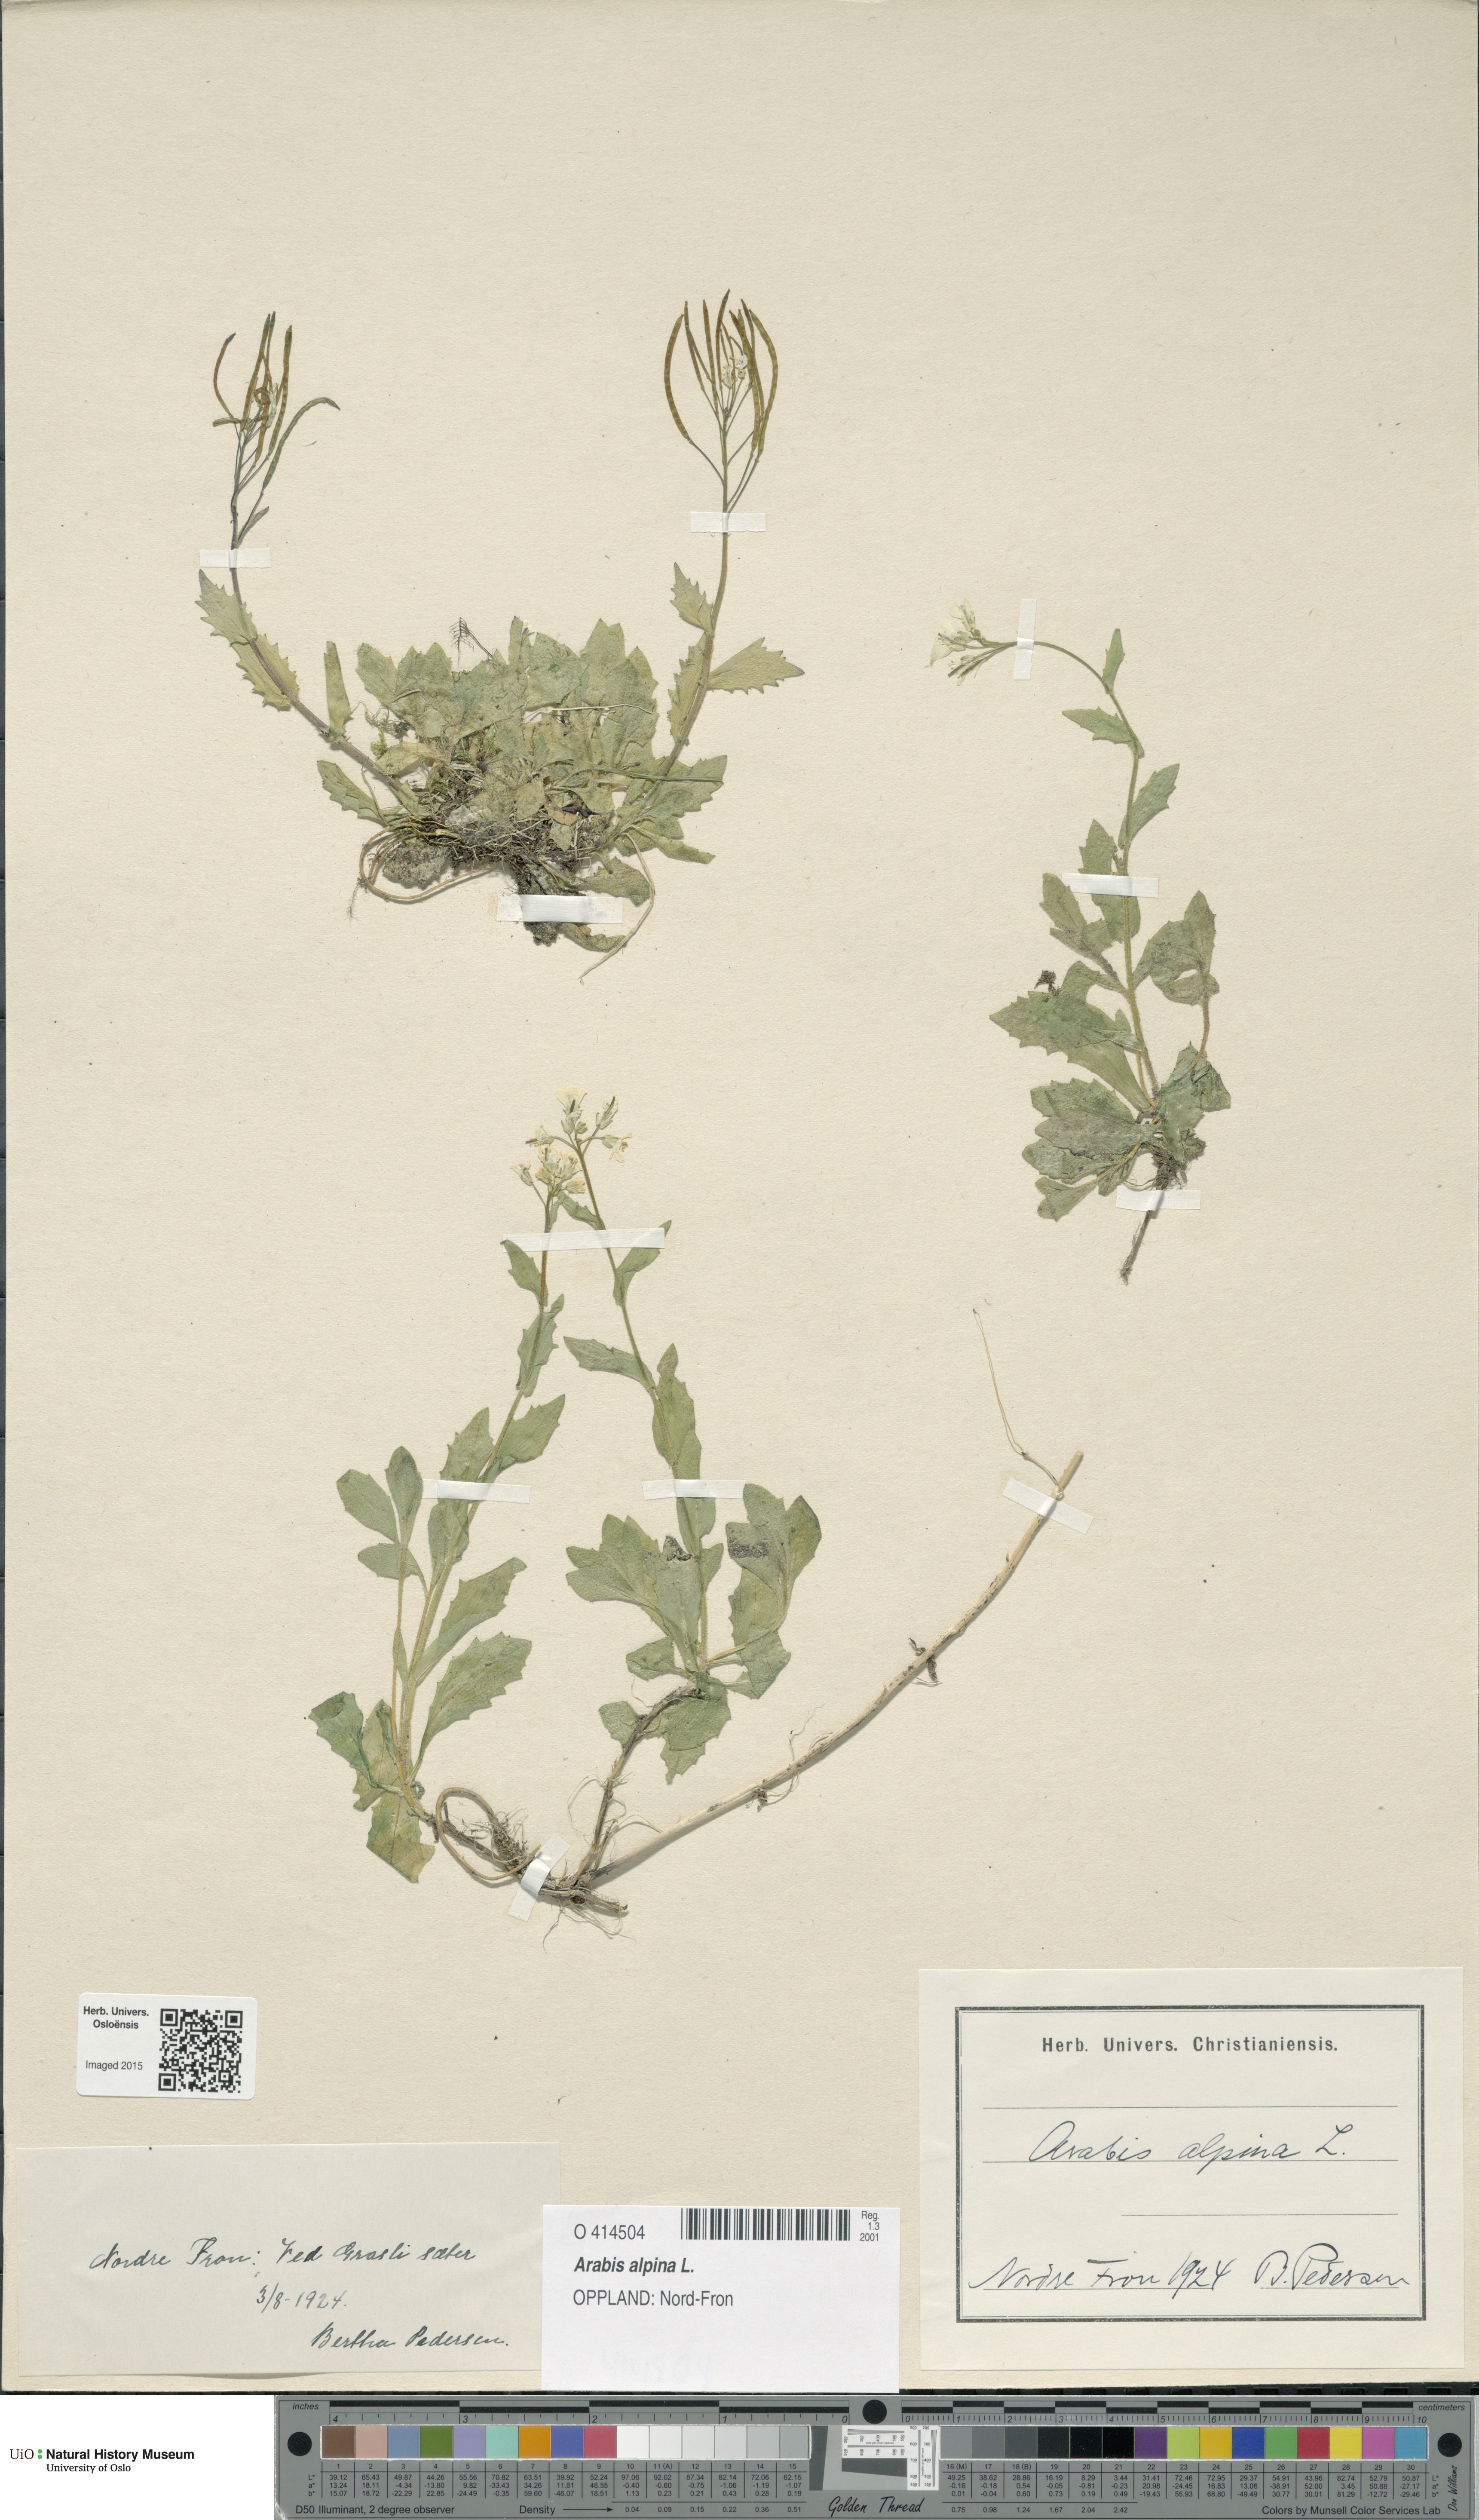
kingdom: Plantae
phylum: Tracheophyta
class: Magnoliopsida
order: Brassicales
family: Brassicaceae
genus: Arabis
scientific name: Arabis alpina
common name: Alpine rock-cress
